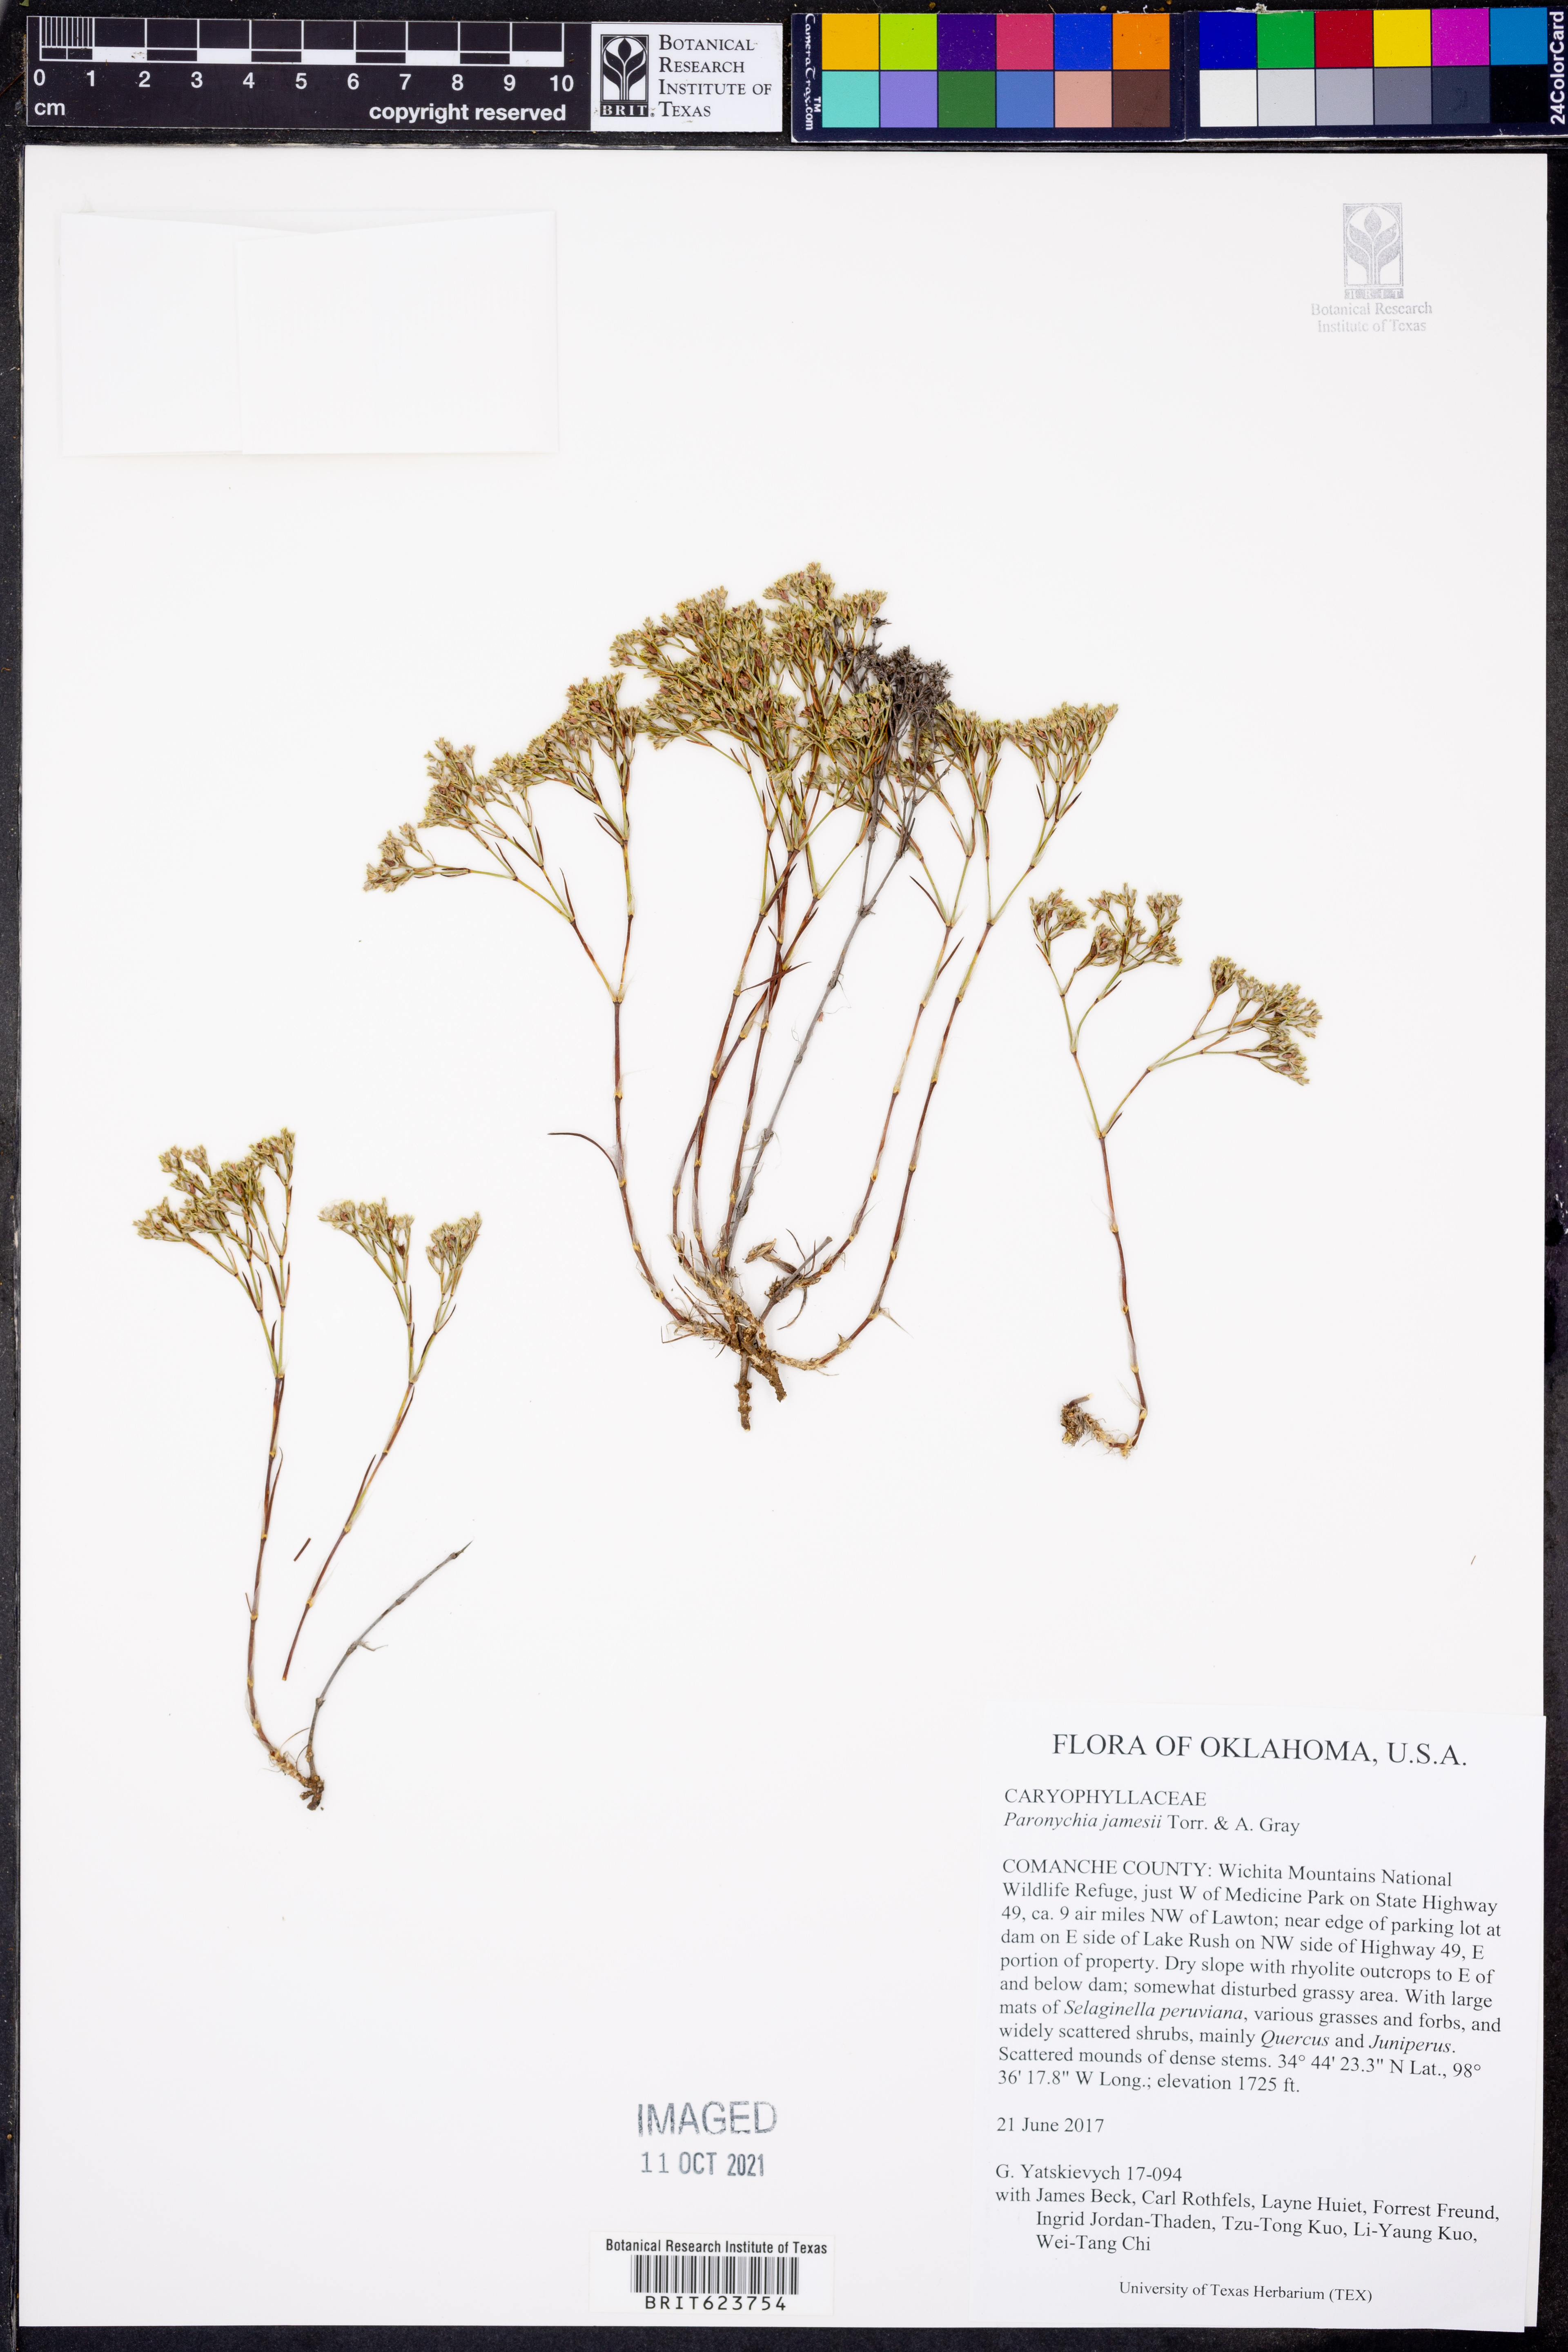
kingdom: Plantae
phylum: Tracheophyta
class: Magnoliopsida
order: Caryophyllales
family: Caryophyllaceae
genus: Paronychia
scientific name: Paronychia jamesii
